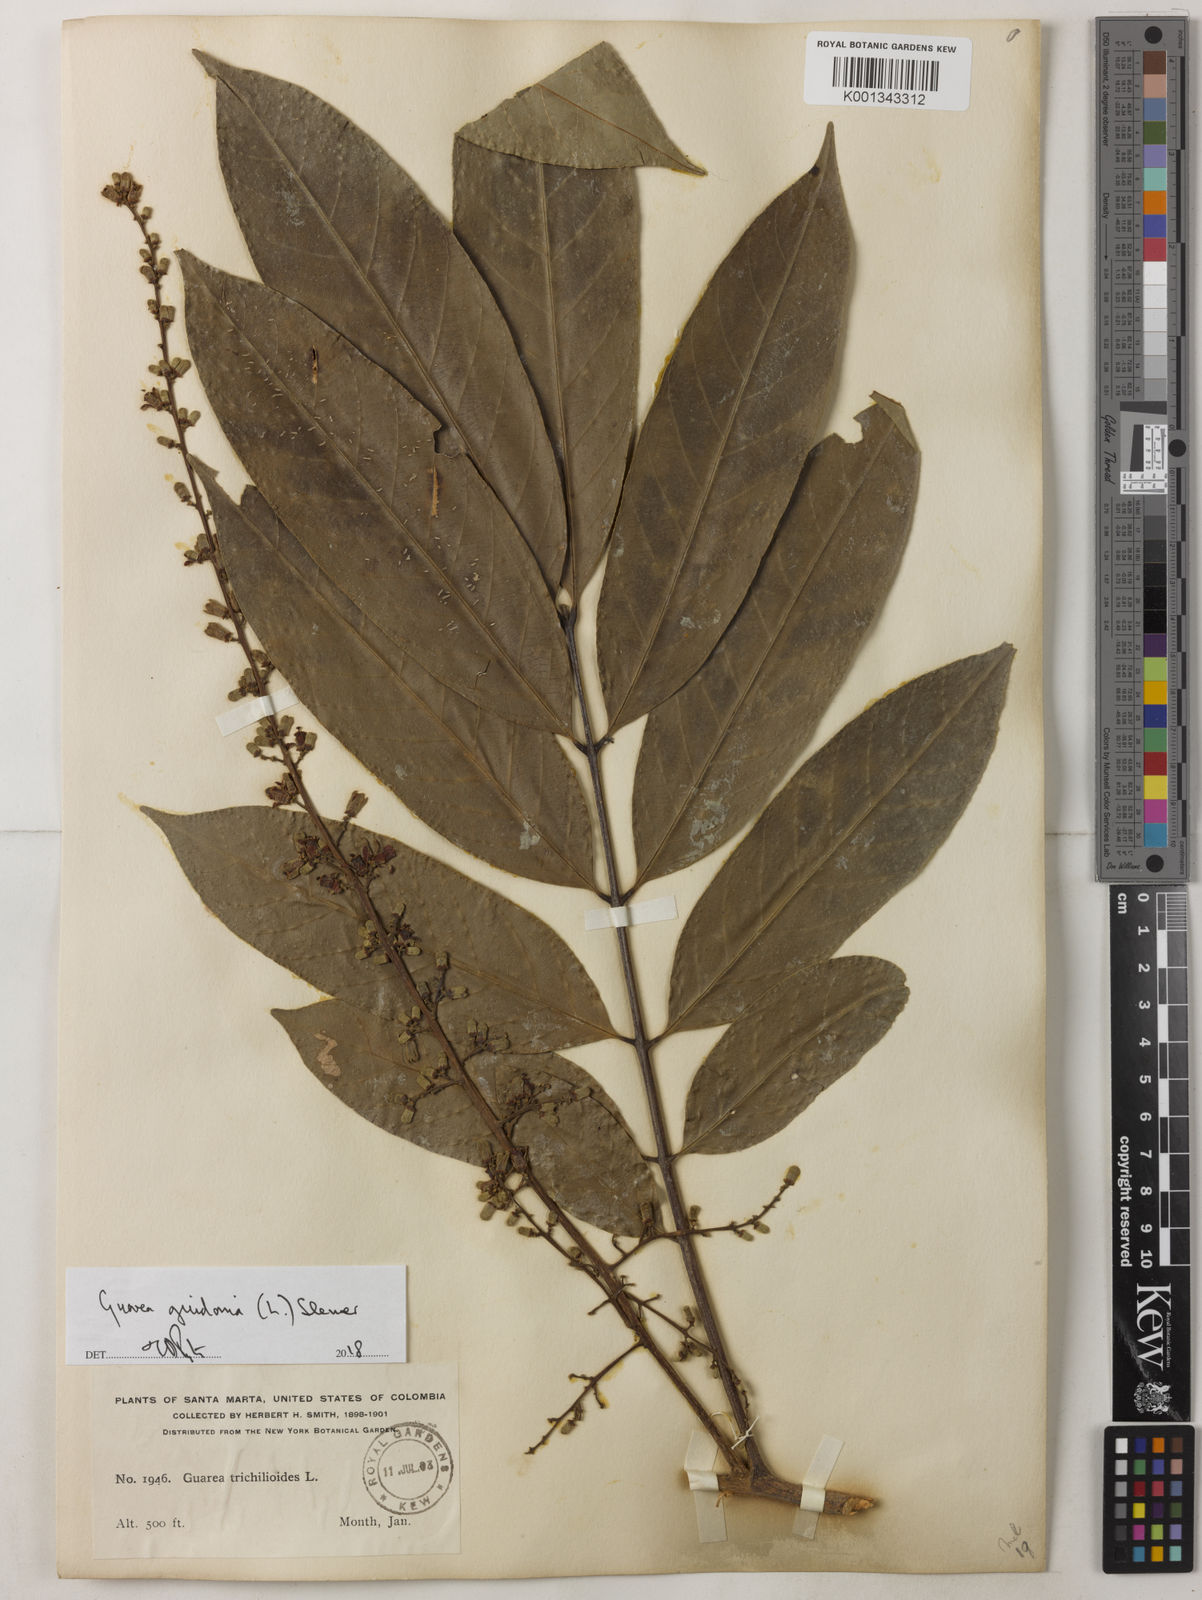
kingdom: Plantae
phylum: Tracheophyta
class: Magnoliopsida
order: Sapindales
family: Meliaceae
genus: Guarea
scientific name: Guarea guidonia
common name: American muskwood
